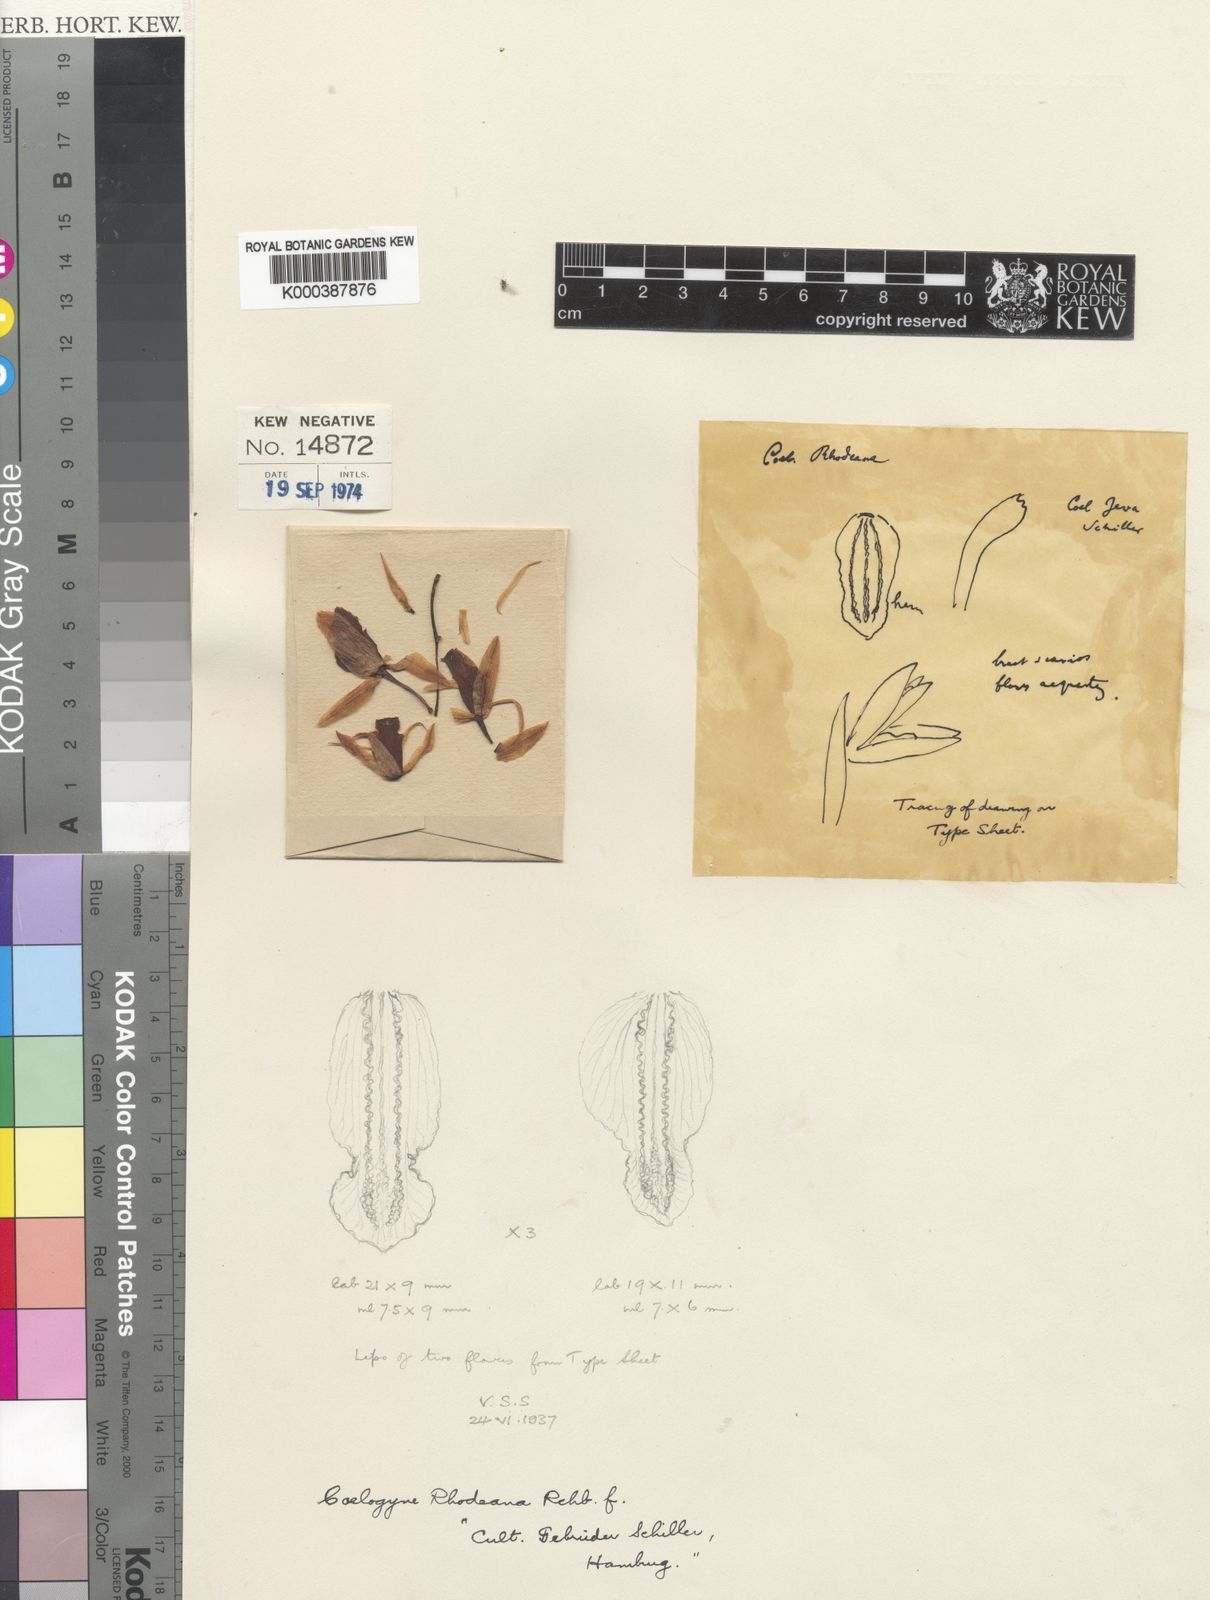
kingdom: Plantae
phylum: Tracheophyta
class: Liliopsida
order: Asparagales
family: Orchidaceae
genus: Coelogyne
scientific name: Coelogyne trinervis
